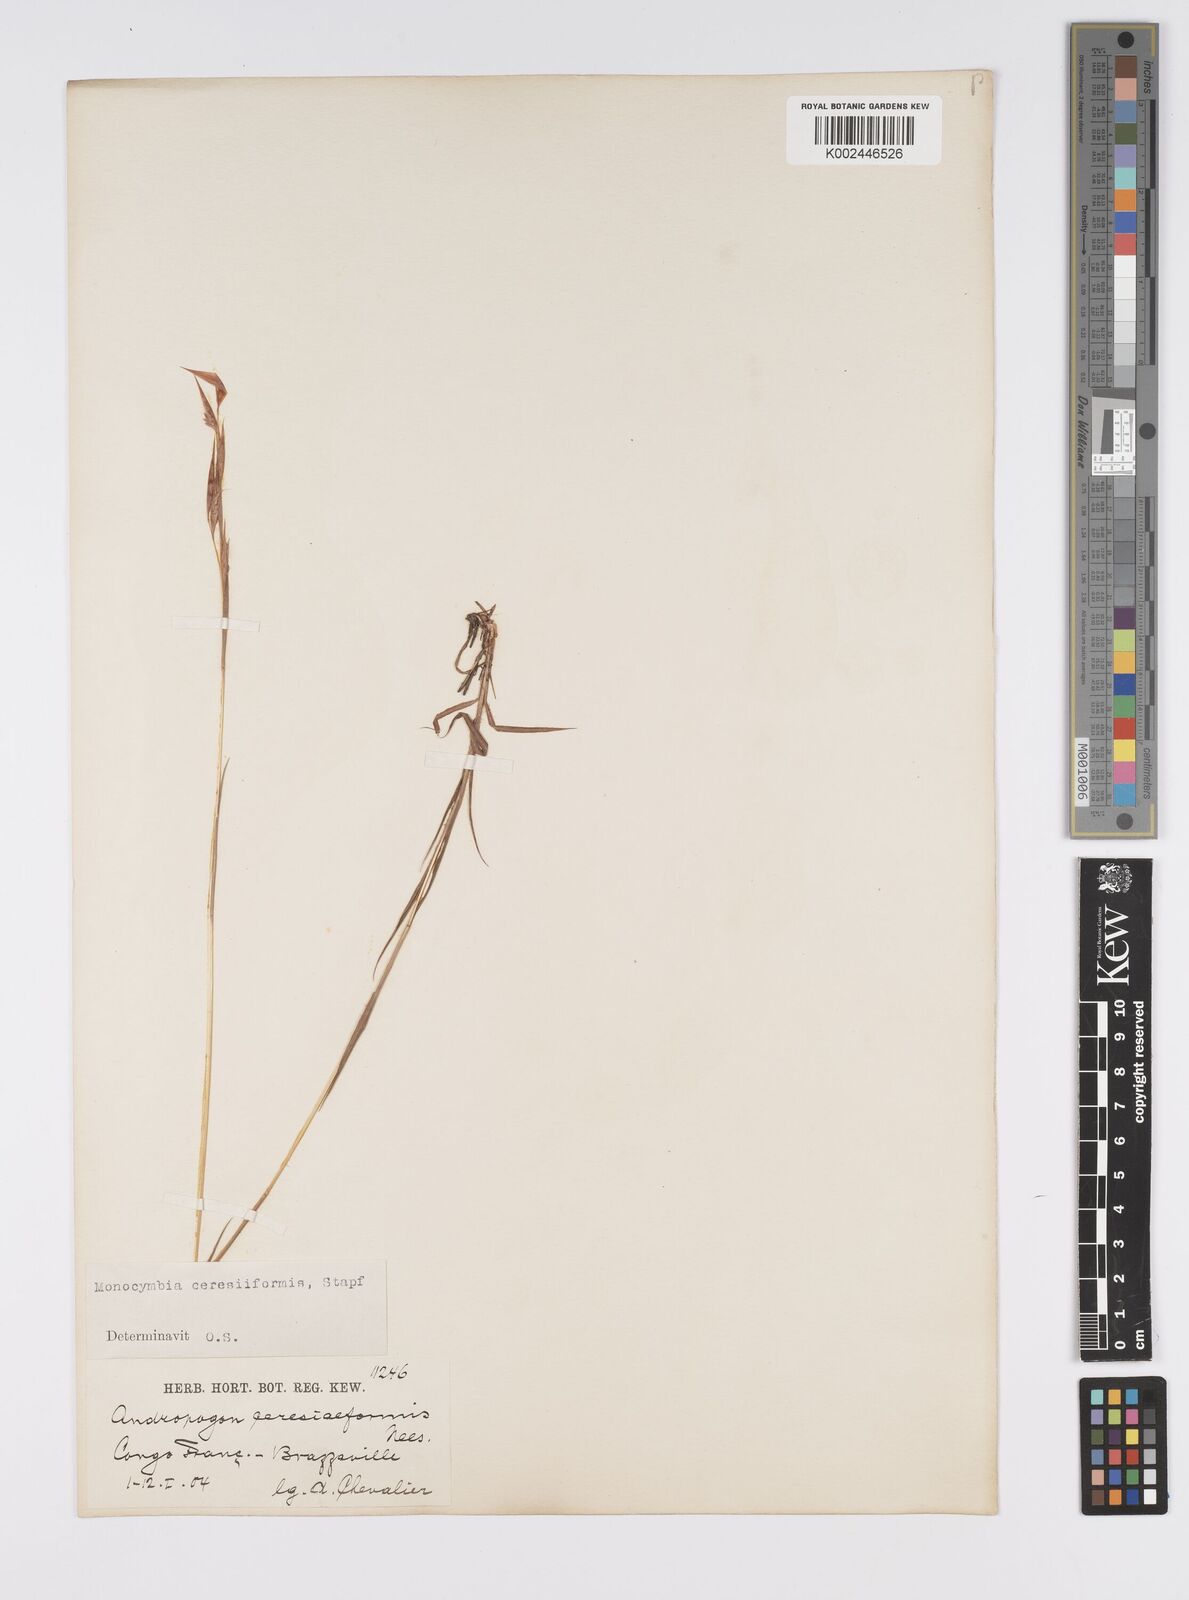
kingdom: Plantae
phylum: Tracheophyta
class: Liliopsida
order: Poales
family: Poaceae
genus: Monocymbium
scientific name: Monocymbium ceresiiforme
